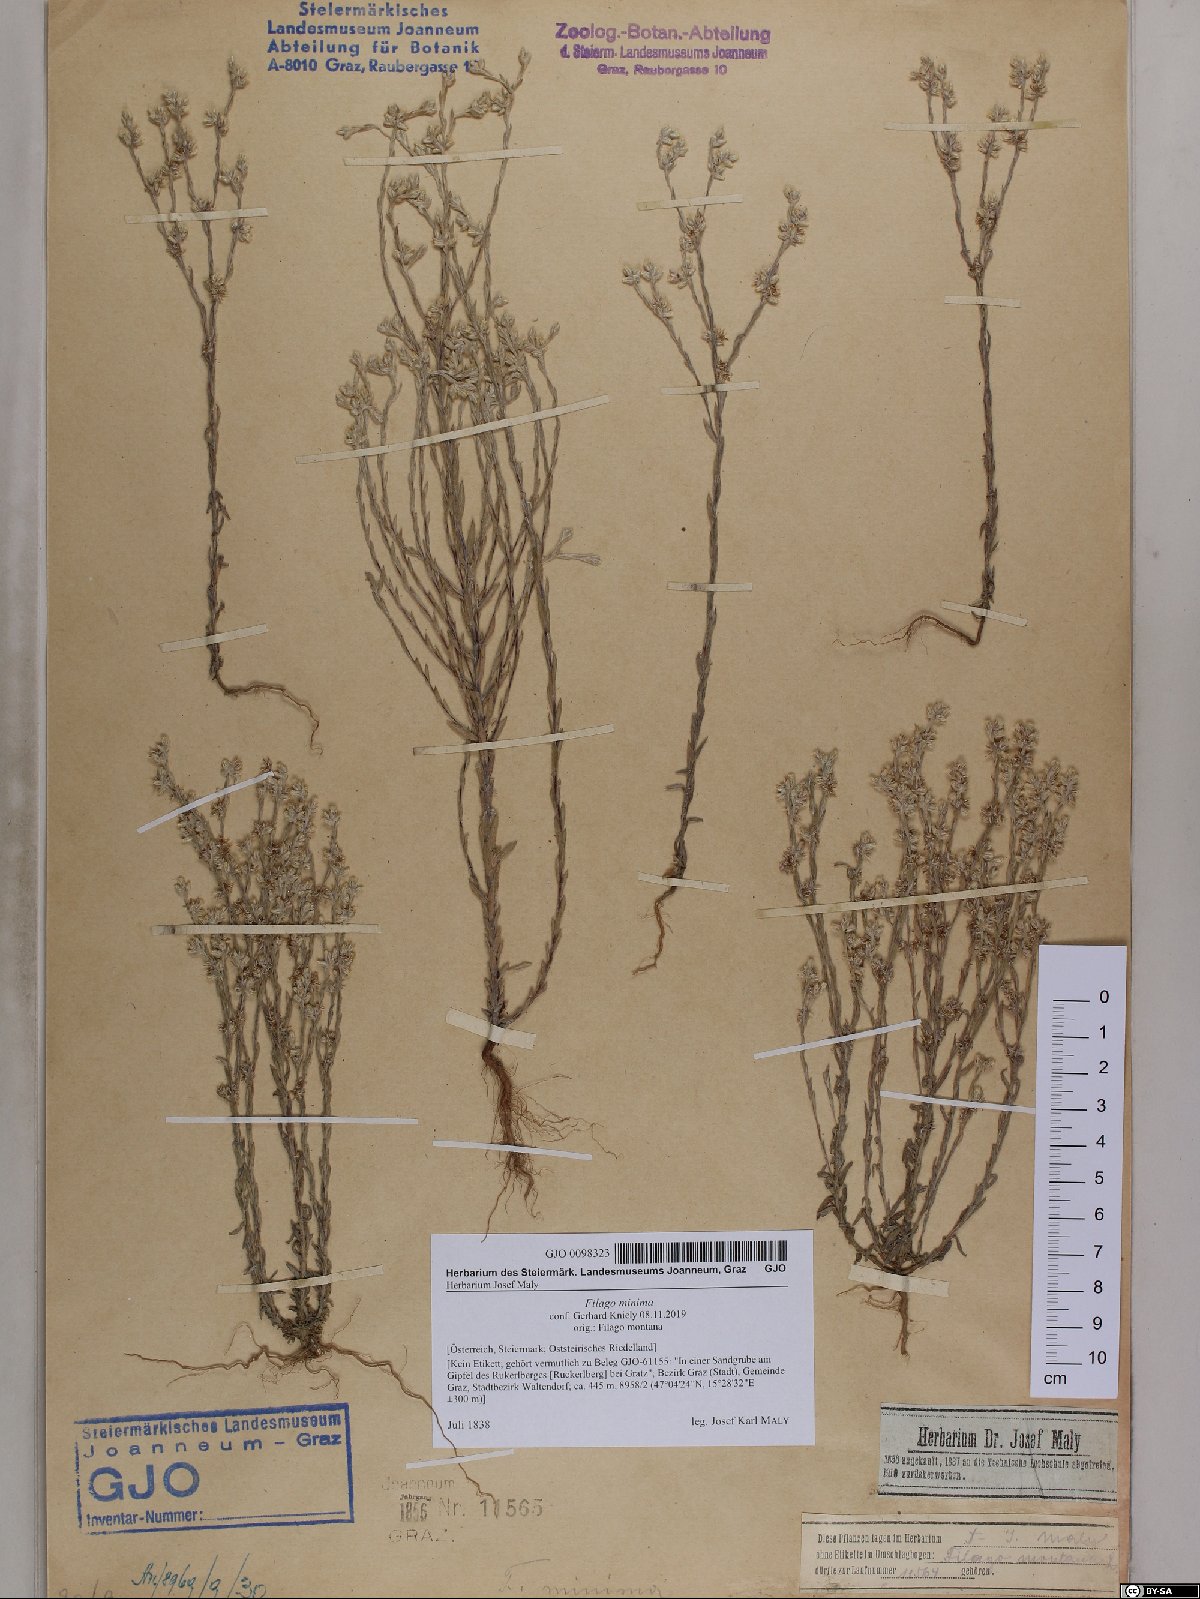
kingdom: Plantae
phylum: Tracheophyta
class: Magnoliopsida
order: Asterales
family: Asteraceae
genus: Logfia
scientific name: Logfia minima
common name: Little cottonrose
